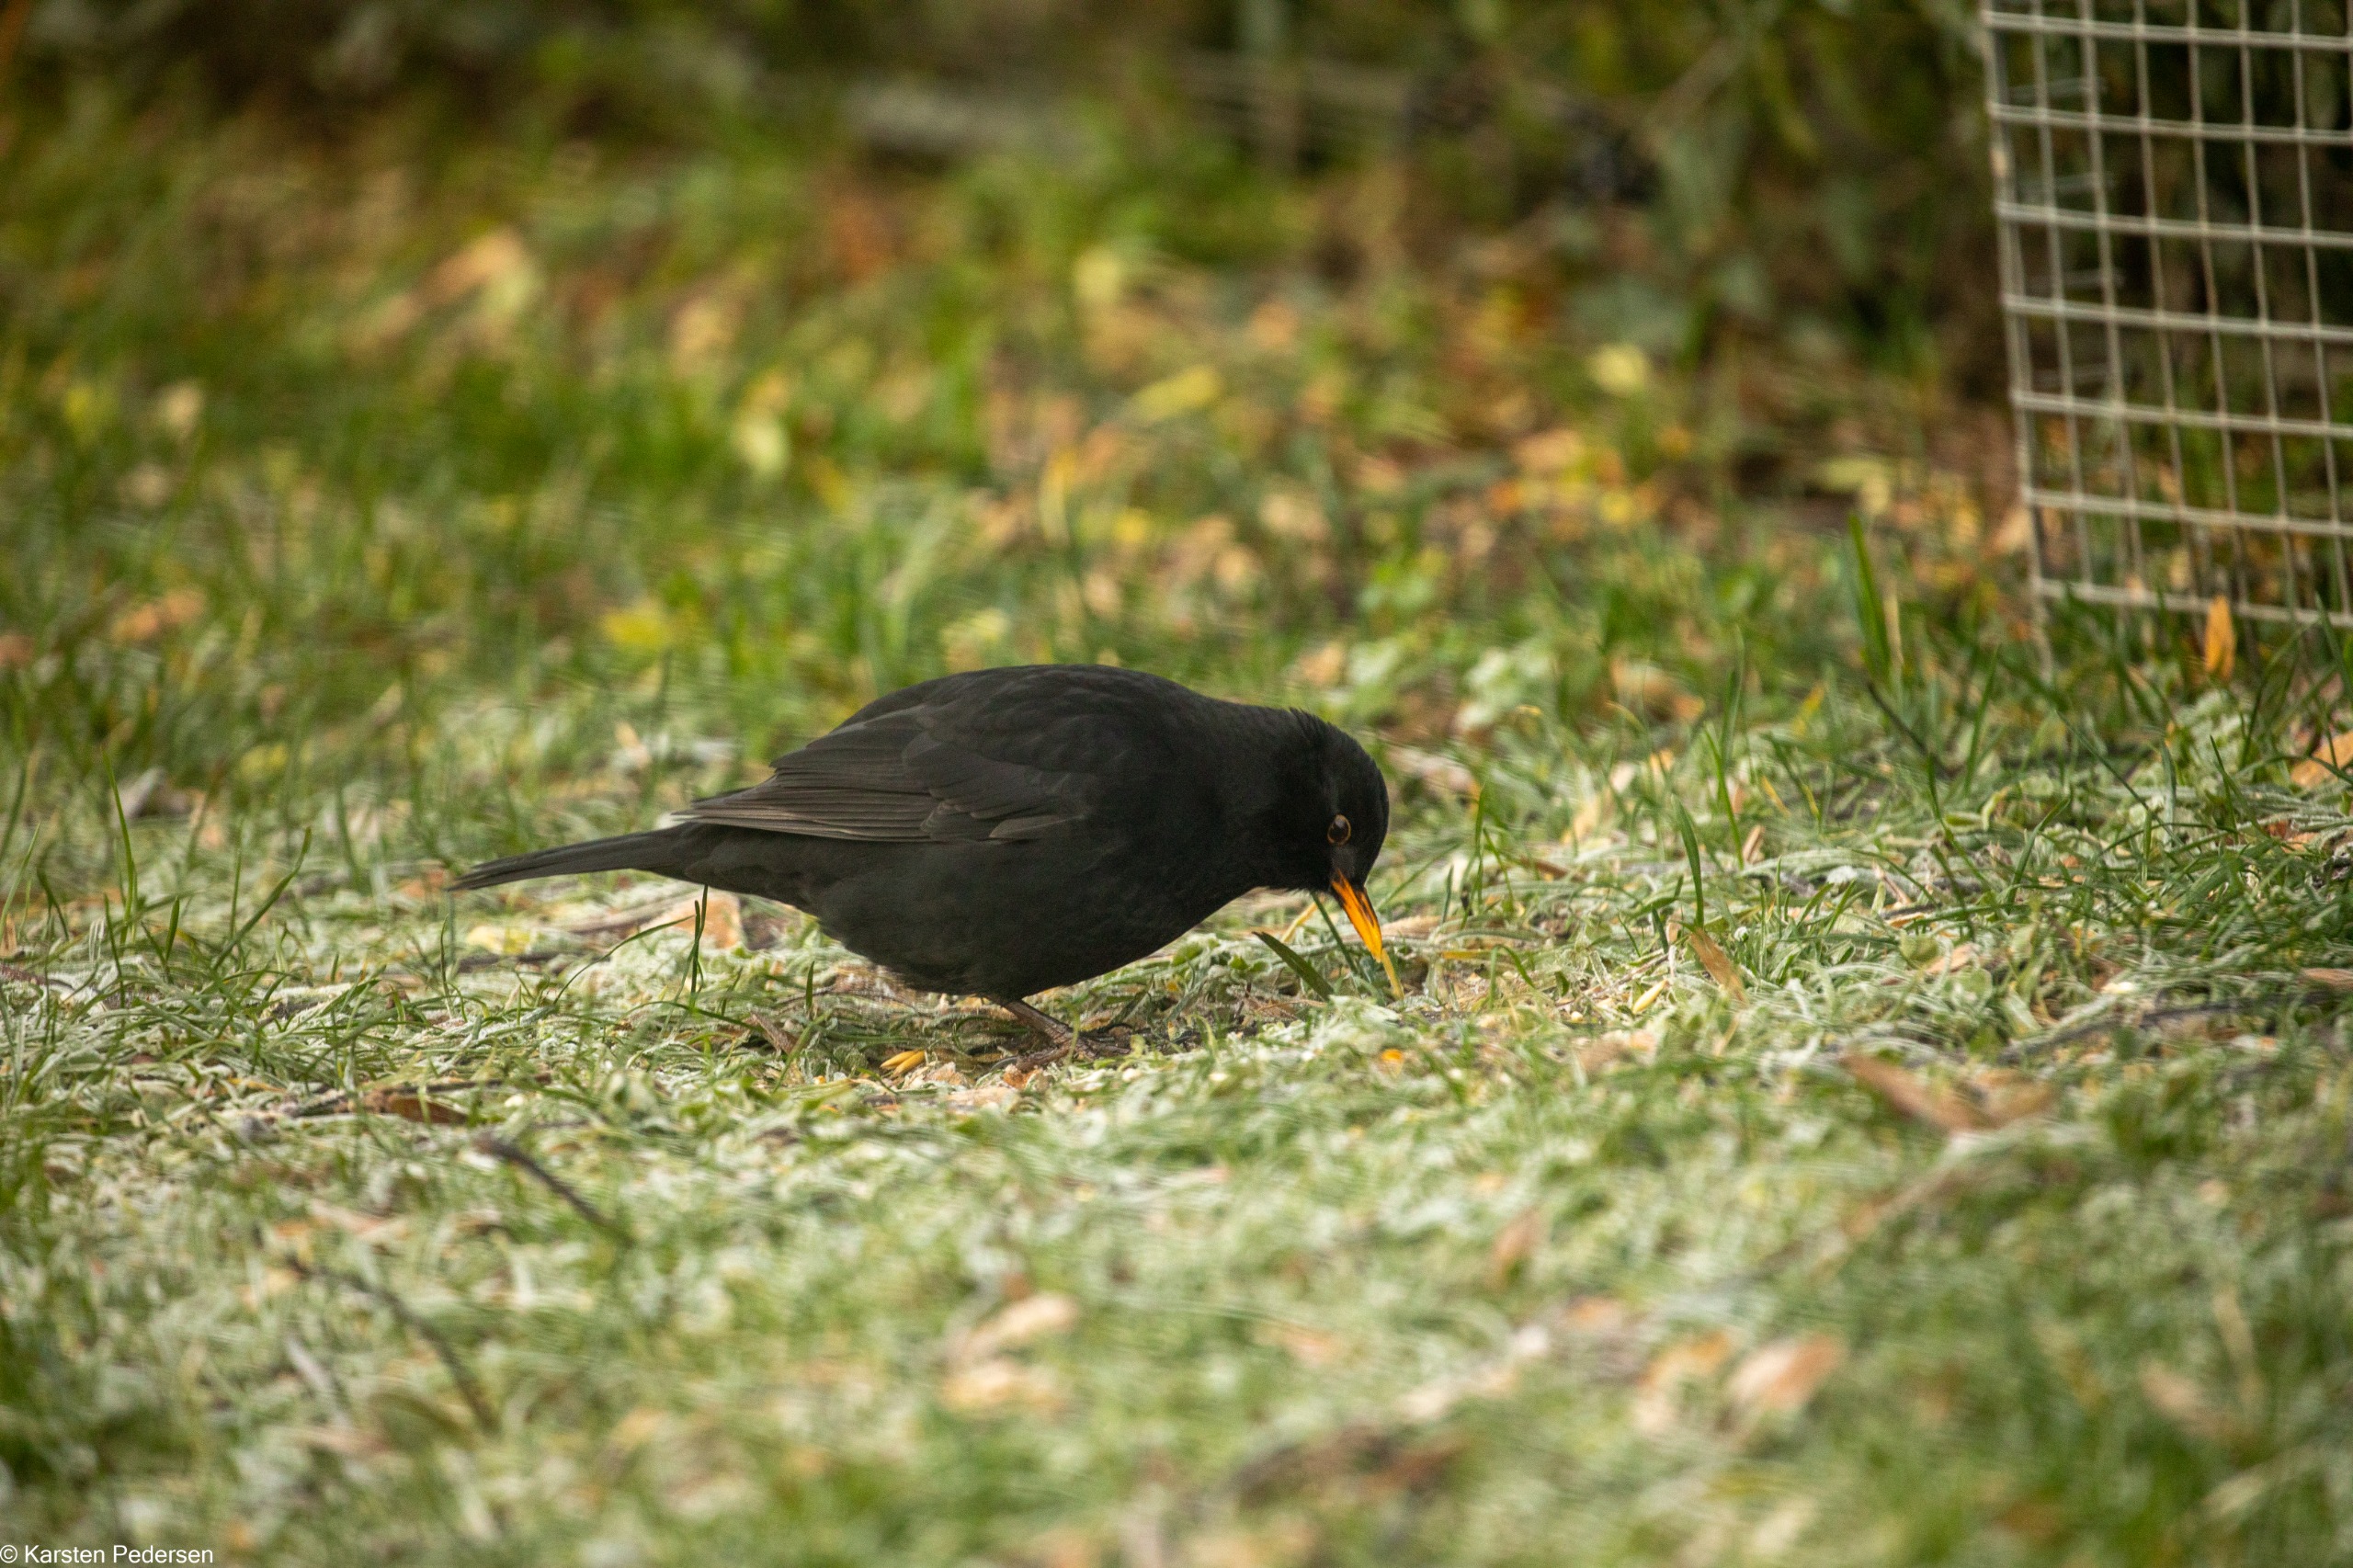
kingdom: Animalia
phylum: Chordata
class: Aves
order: Passeriformes
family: Turdidae
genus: Turdus
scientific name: Turdus merula
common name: Solsort
